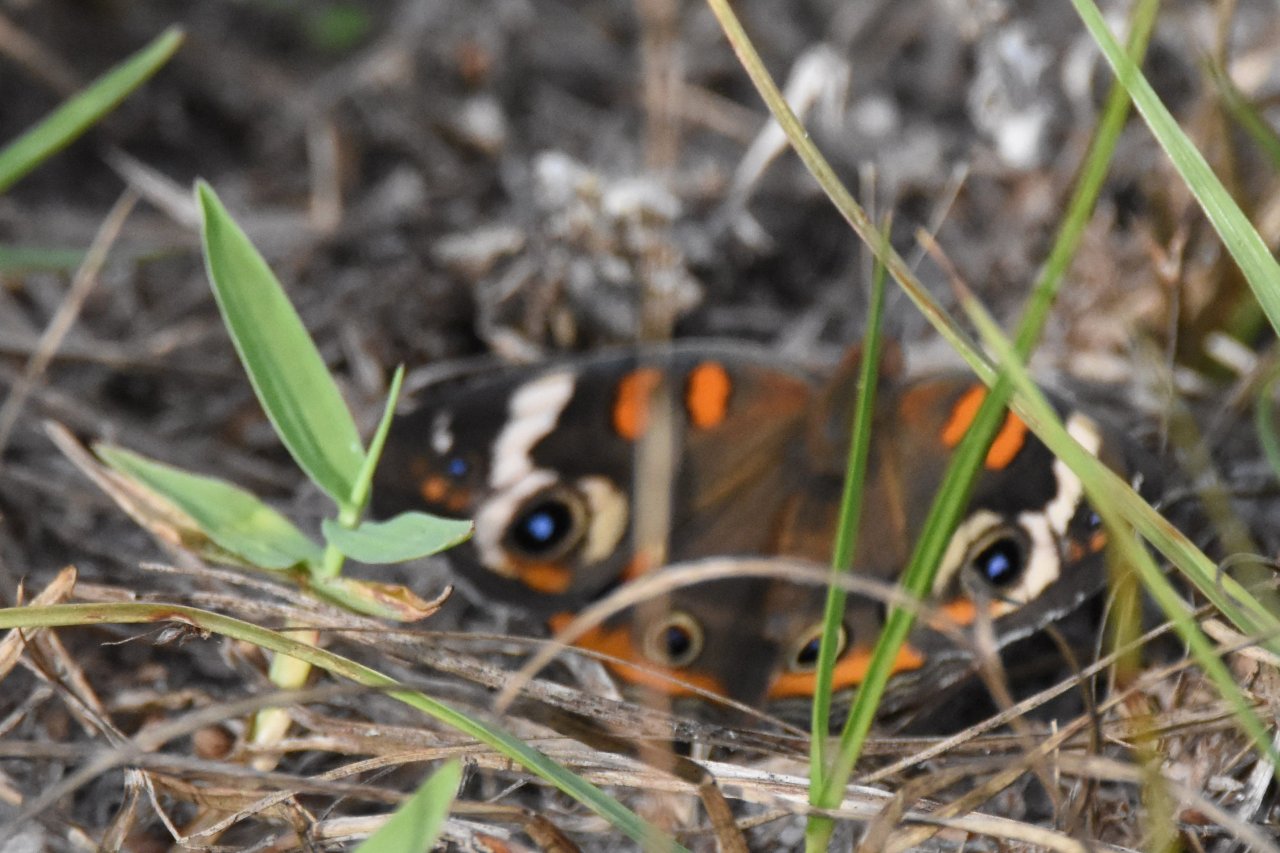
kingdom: Animalia
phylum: Arthropoda
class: Insecta
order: Lepidoptera
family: Nymphalidae
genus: Junonia
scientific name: Junonia coenia
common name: Common Buckeye
